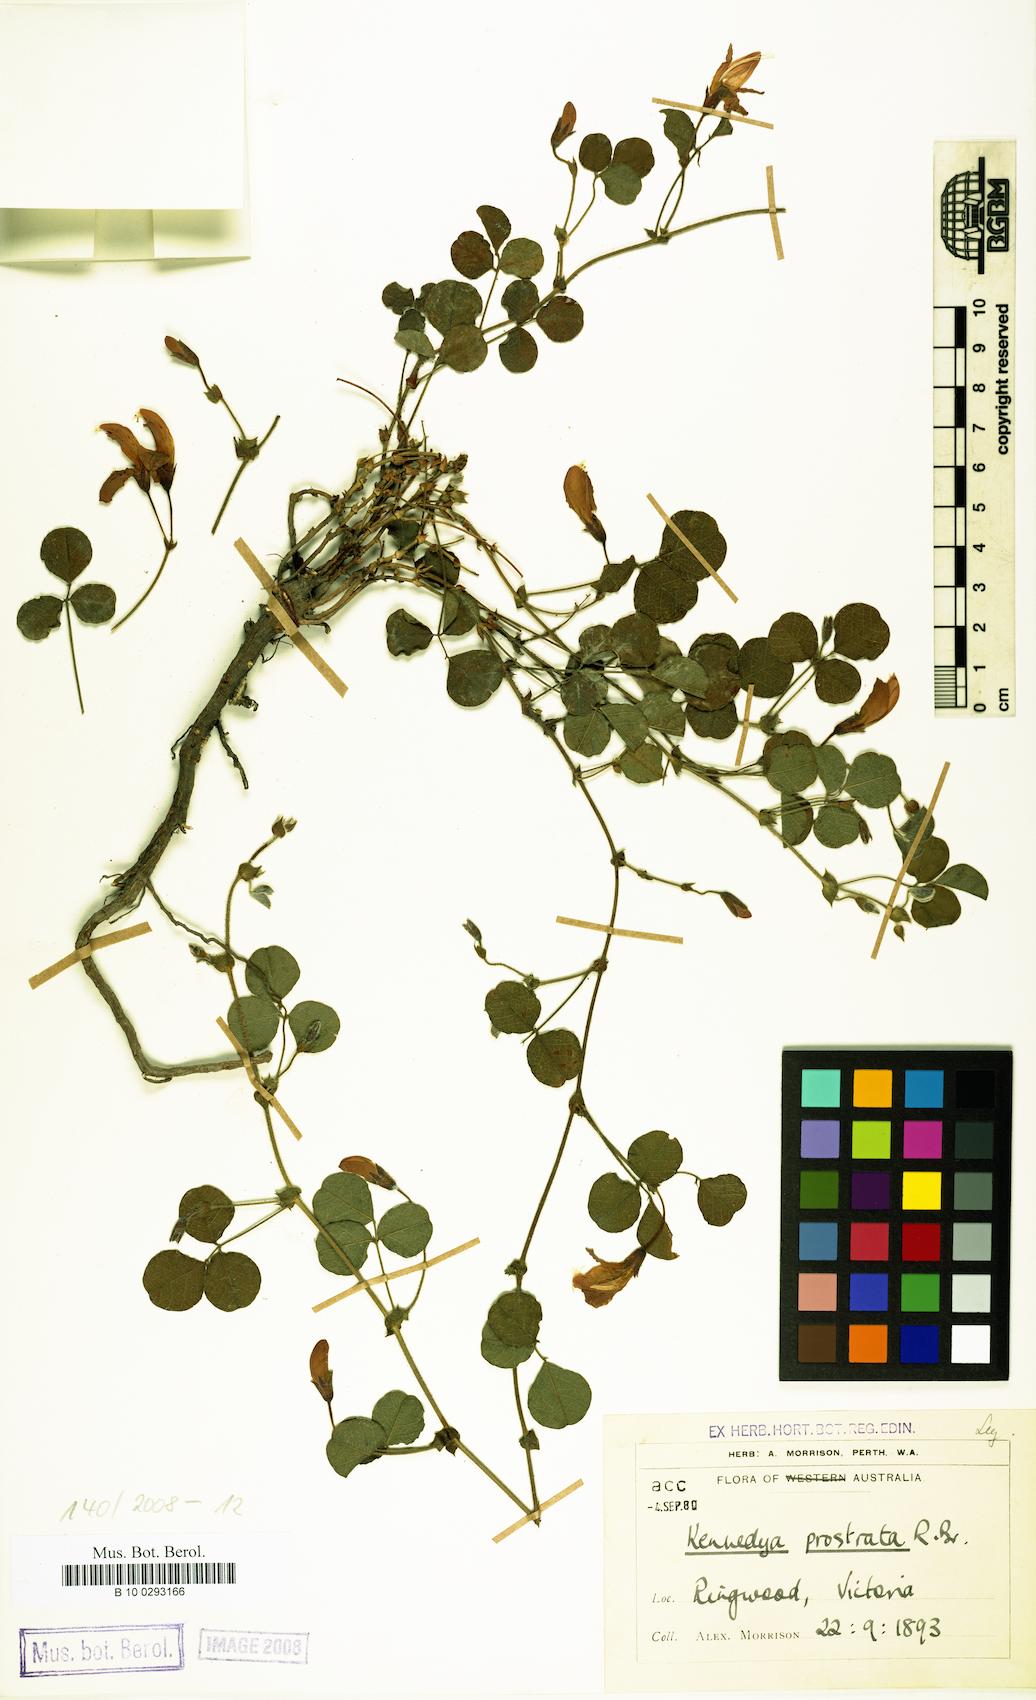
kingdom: Plantae
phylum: Tracheophyta
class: Magnoliopsida
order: Fabales
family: Fabaceae
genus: Kennedia
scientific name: Kennedia prostrata
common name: Running-postman
